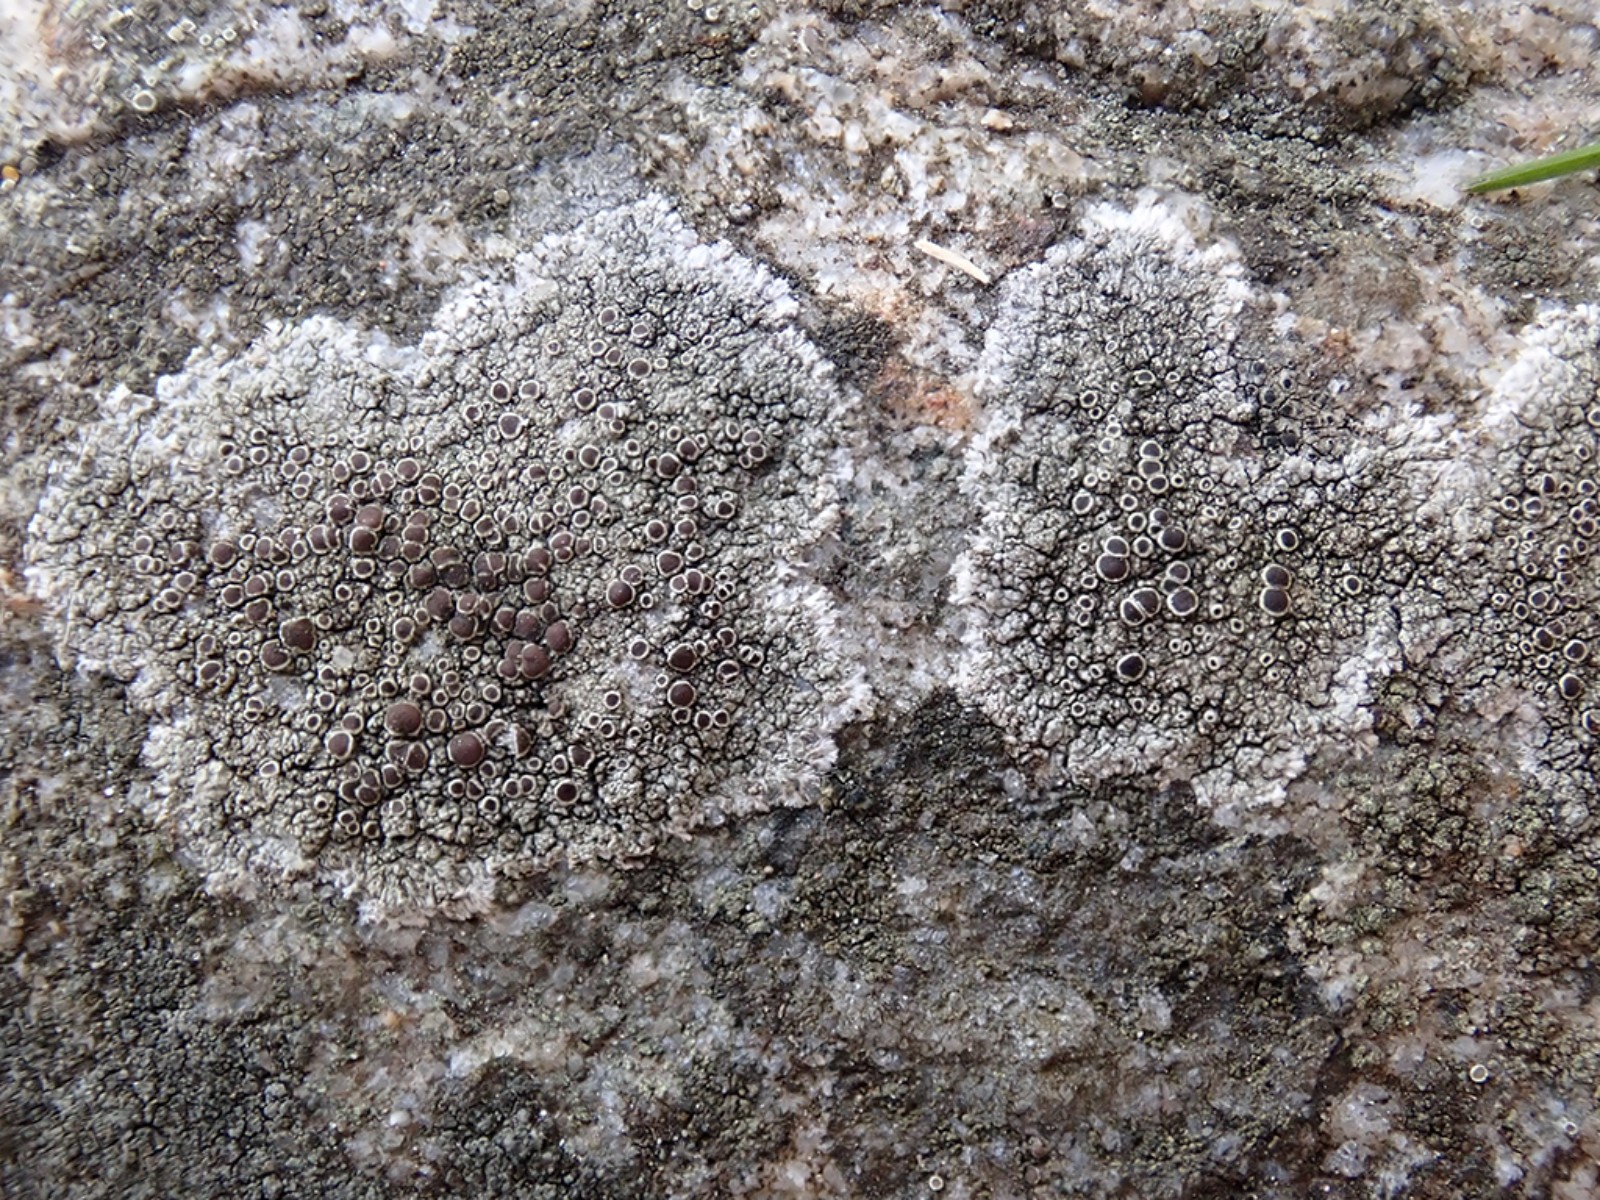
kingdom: Fungi
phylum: Ascomycota
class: Lecanoromycetes
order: Lecanorales
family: Lecanoraceae
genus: Lecanora
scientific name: Lecanora campestris
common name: mur-kantskivelav
